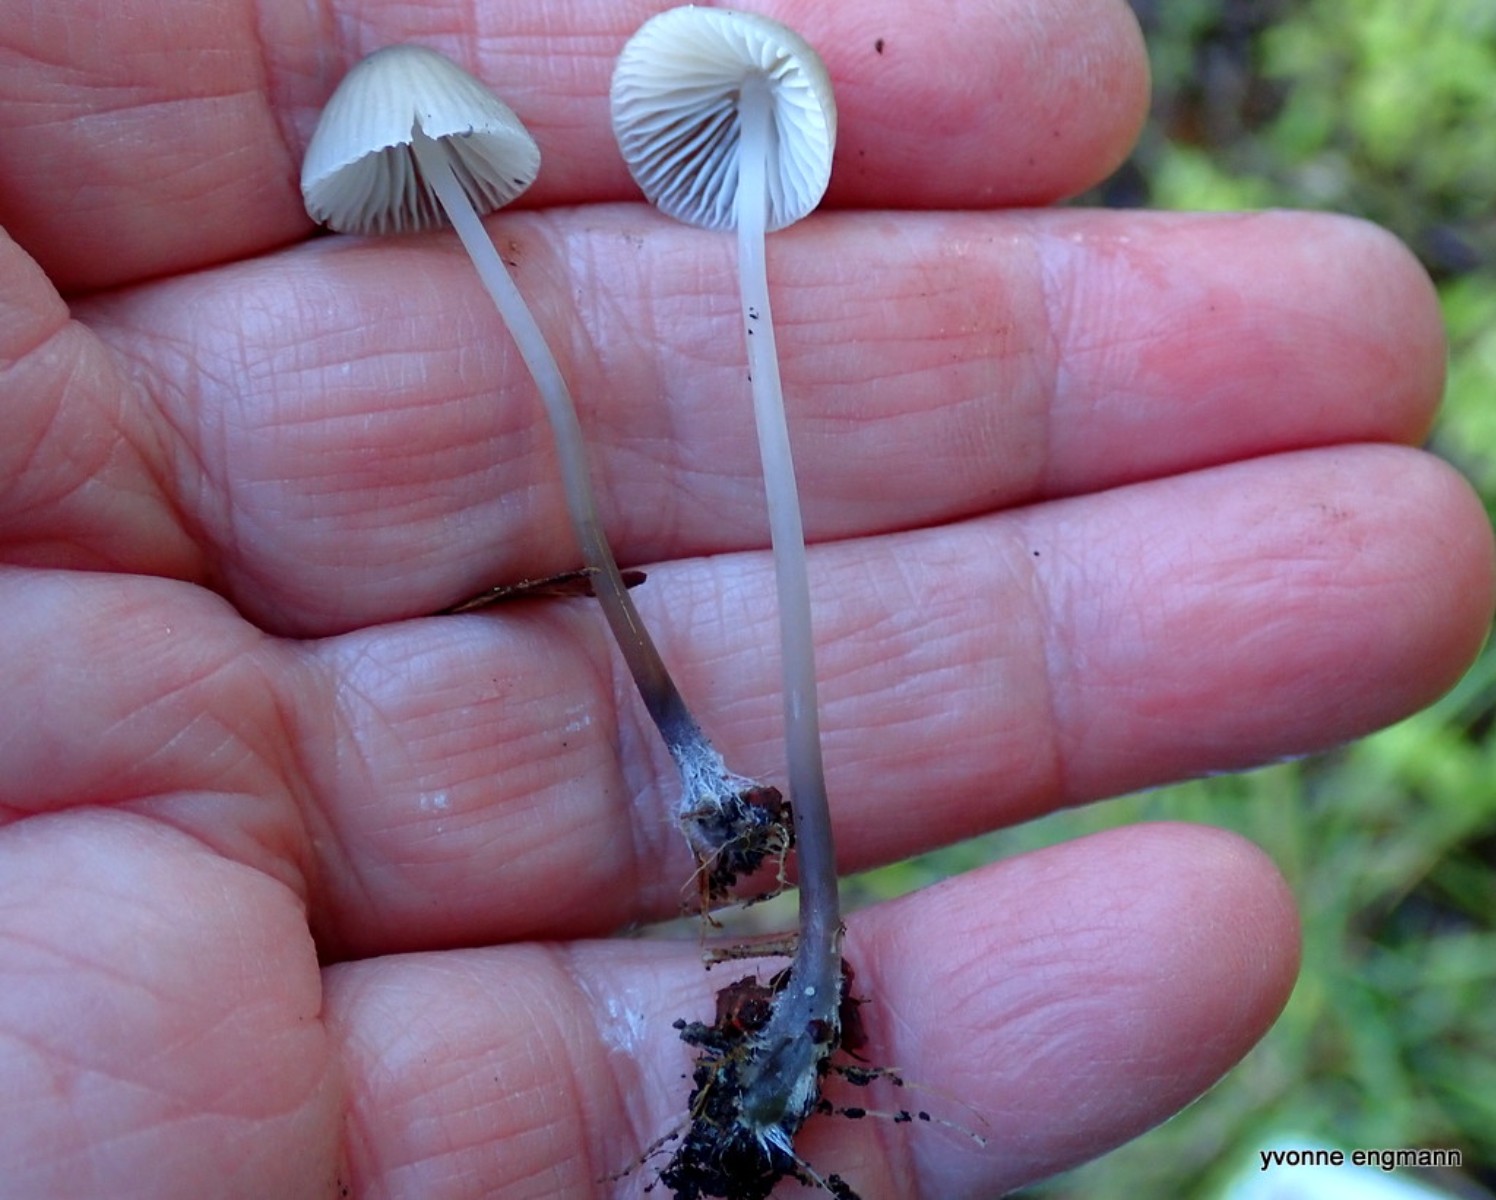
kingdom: Fungi
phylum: Basidiomycota
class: Agaricomycetes
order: Agaricales
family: Mycenaceae
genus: Mycena
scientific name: Mycena vitilis
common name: blankstokket huesvamp
